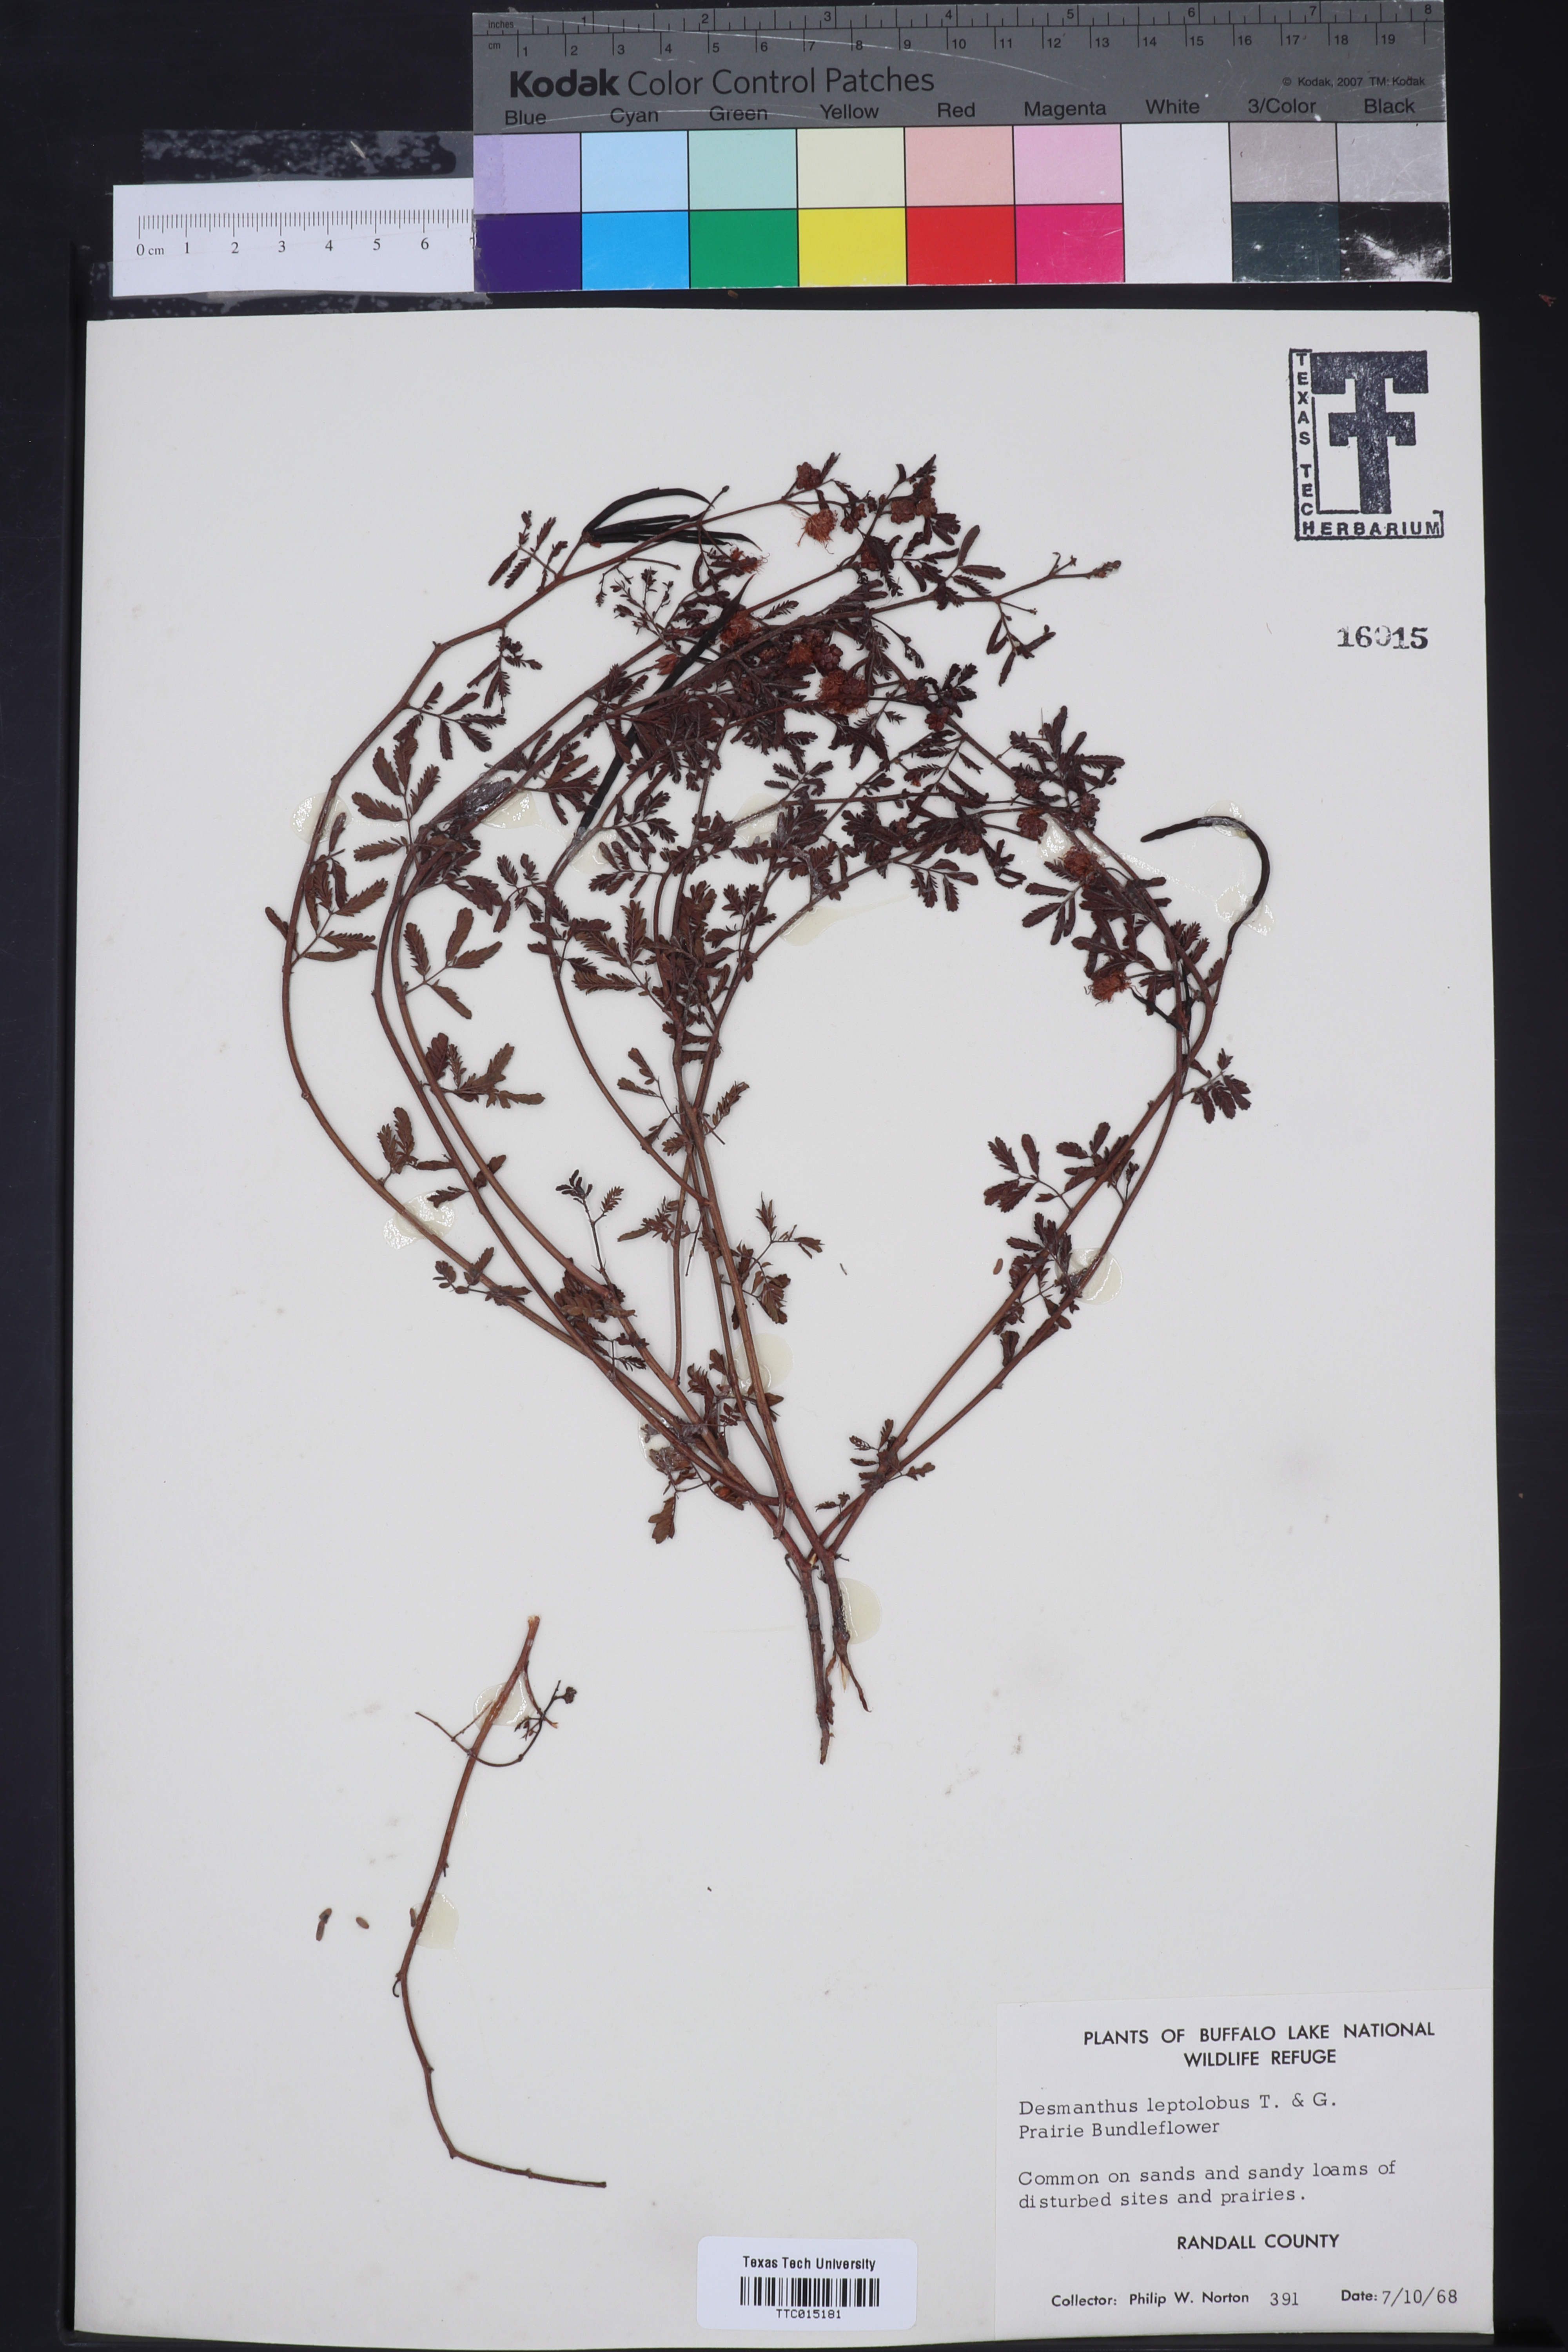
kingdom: Plantae
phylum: Tracheophyta
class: Magnoliopsida
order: Fabales
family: Fabaceae
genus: Desmanthus
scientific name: Desmanthus leptolobus
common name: Prairie-mimosa
